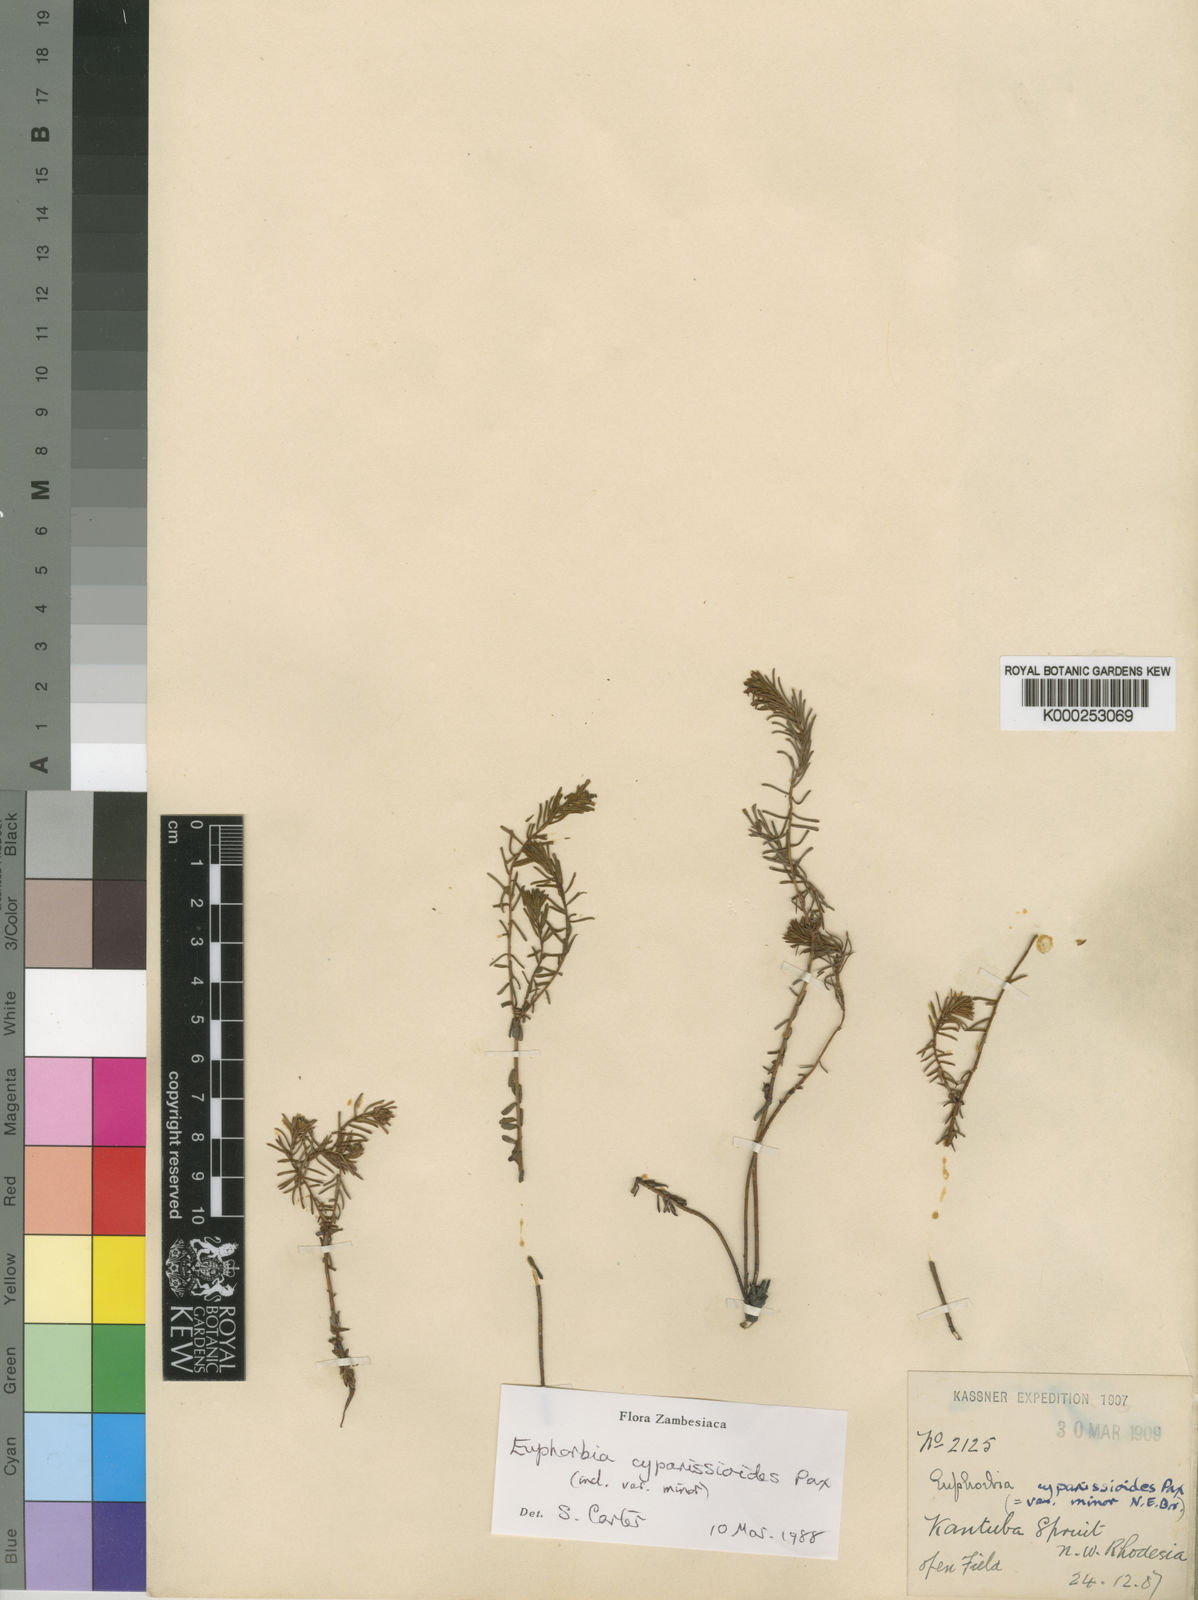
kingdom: Plantae
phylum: Tracheophyta
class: Magnoliopsida
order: Malpighiales
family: Euphorbiaceae
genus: Euphorbia
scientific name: Euphorbia cyparissioides
